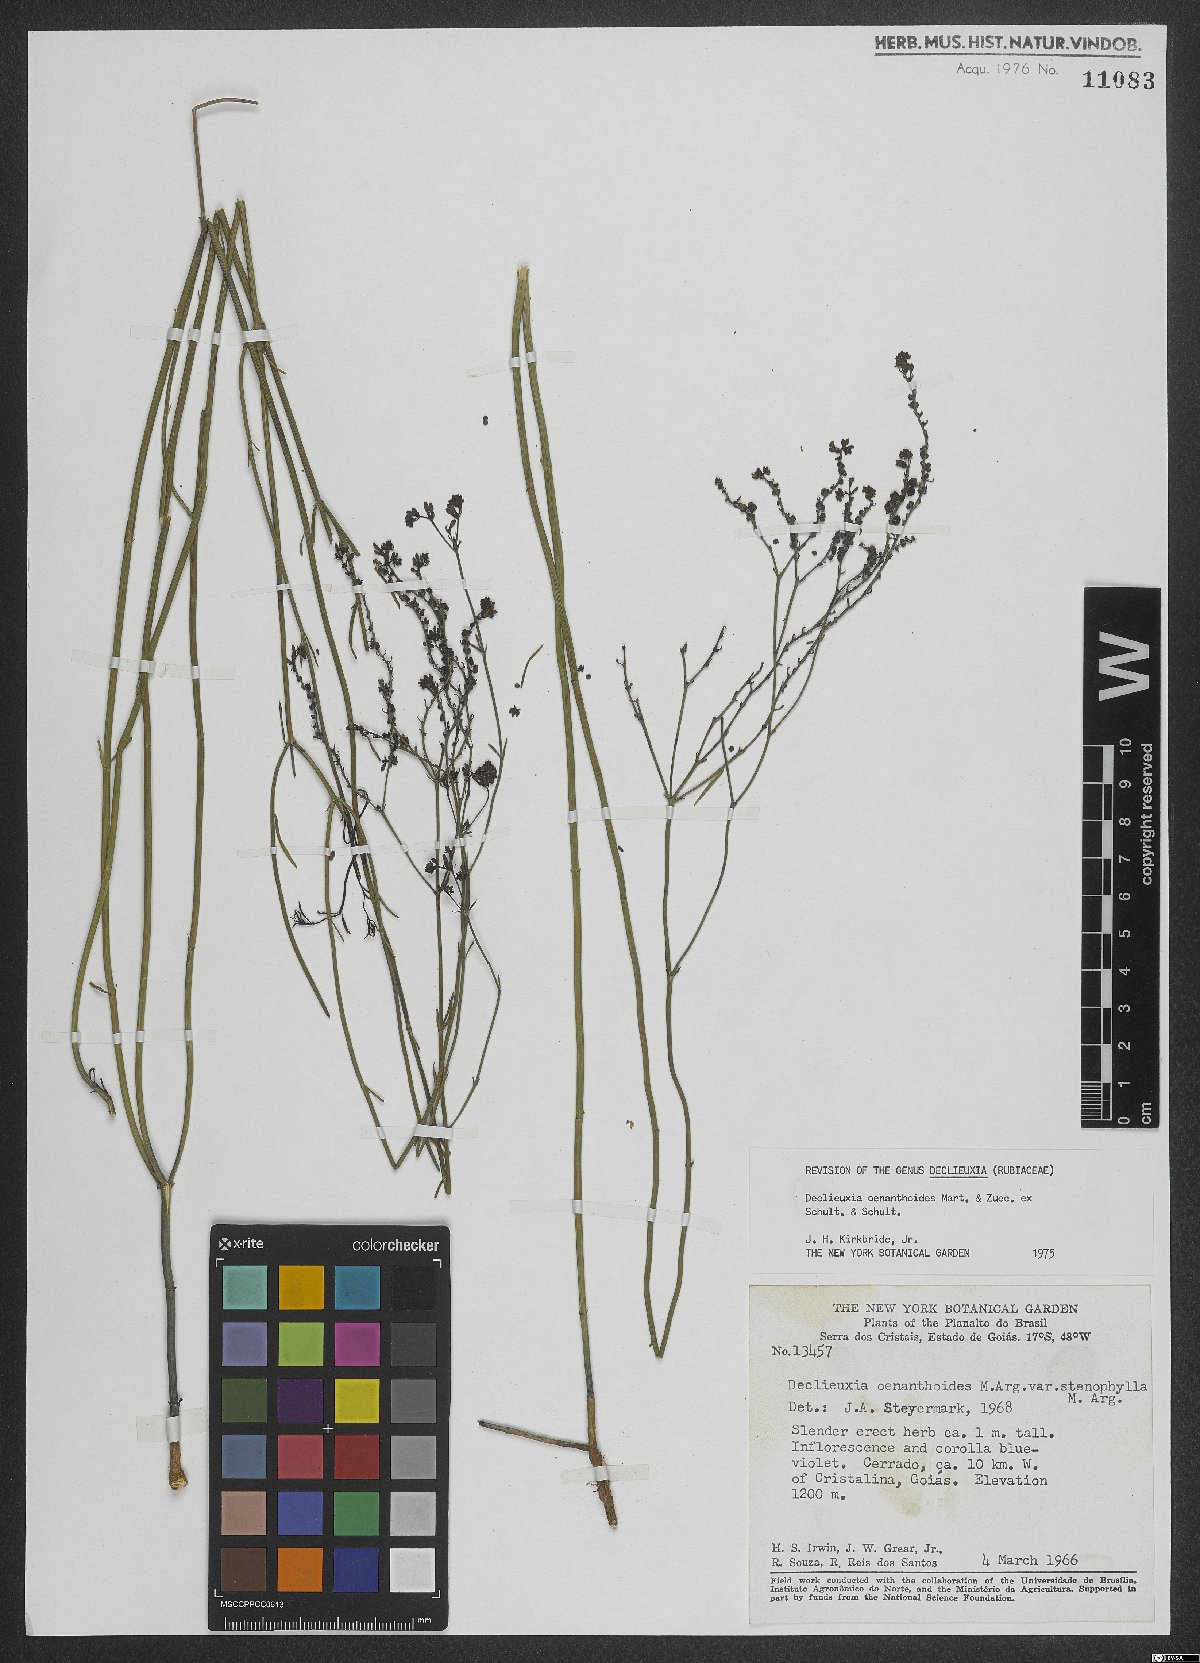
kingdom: Plantae
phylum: Tracheophyta
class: Magnoliopsida
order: Gentianales
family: Rubiaceae
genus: Declieuxia
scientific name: Declieuxia oenanthoides
